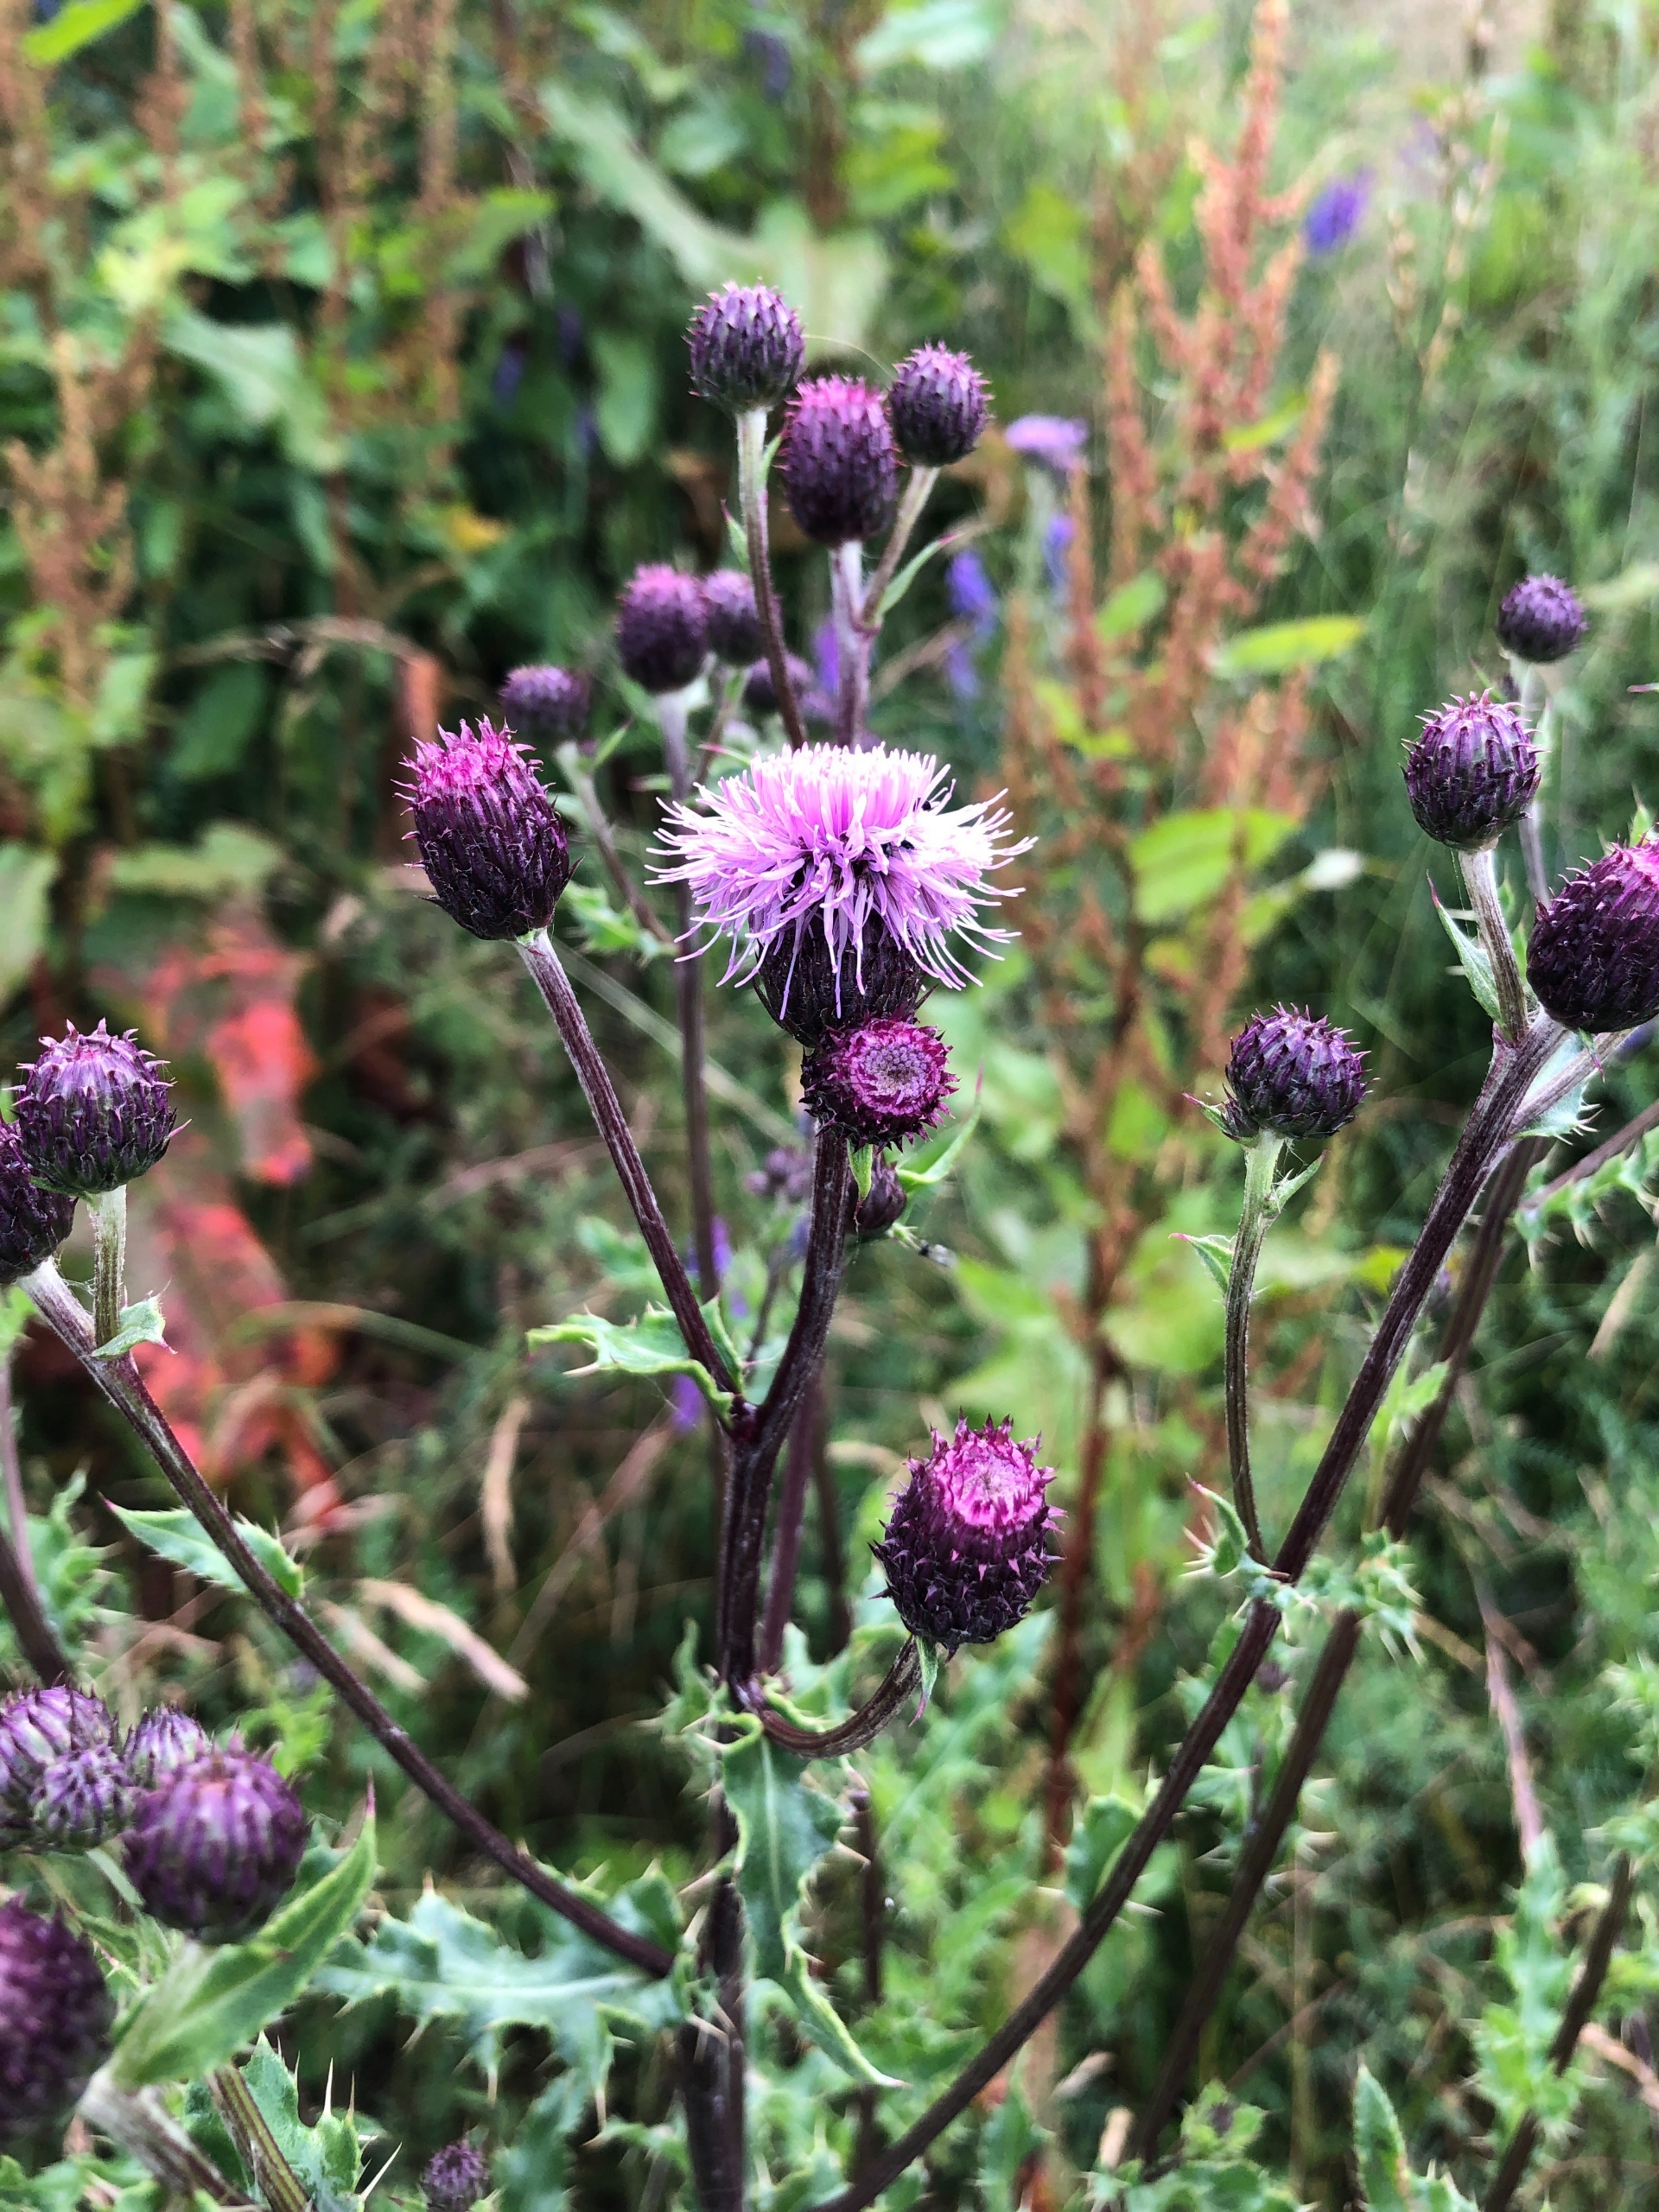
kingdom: Plantae
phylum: Tracheophyta
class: Magnoliopsida
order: Asterales
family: Asteraceae
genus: Cirsium
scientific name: Cirsium arvense
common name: Ager-tidsel
